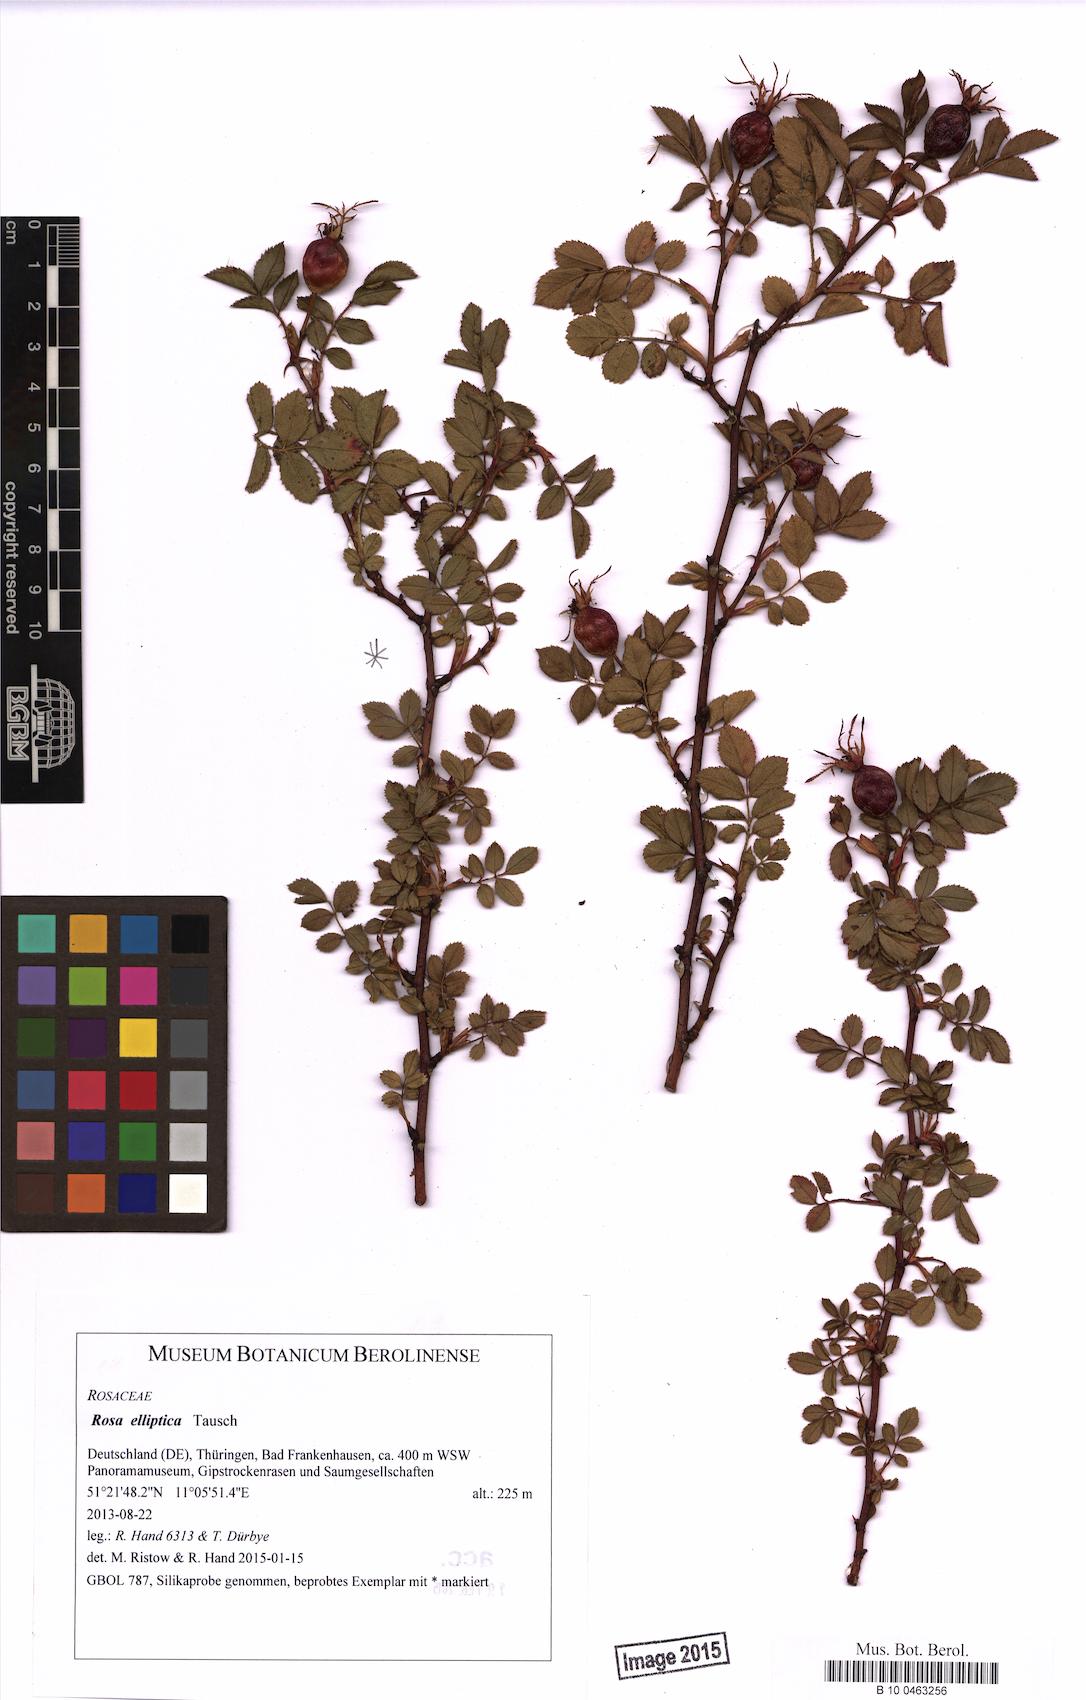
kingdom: Plantae
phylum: Tracheophyta
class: Magnoliopsida
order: Rosales
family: Rosaceae
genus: Rosa
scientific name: Rosa inodora
